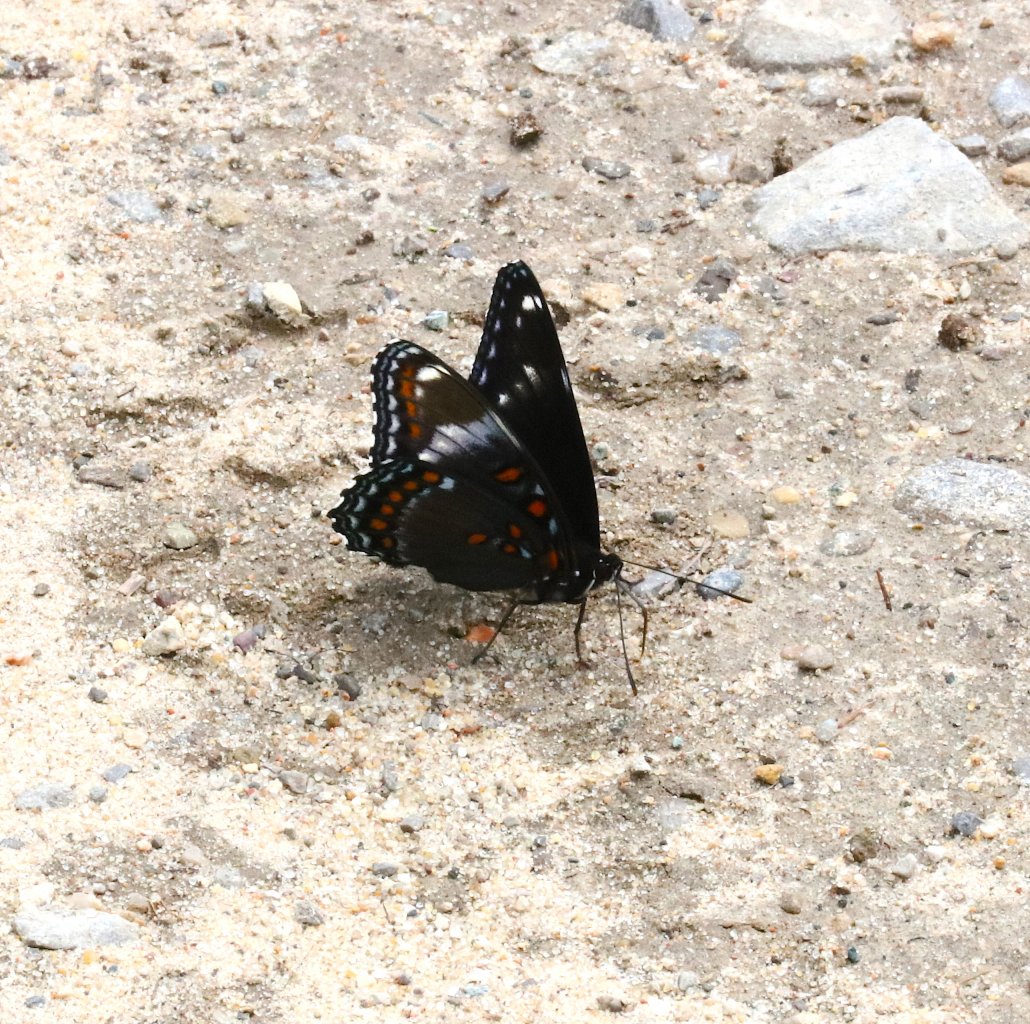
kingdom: Animalia
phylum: Arthropoda
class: Insecta
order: Lepidoptera
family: Nymphalidae
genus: Limenitis
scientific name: Limenitis
